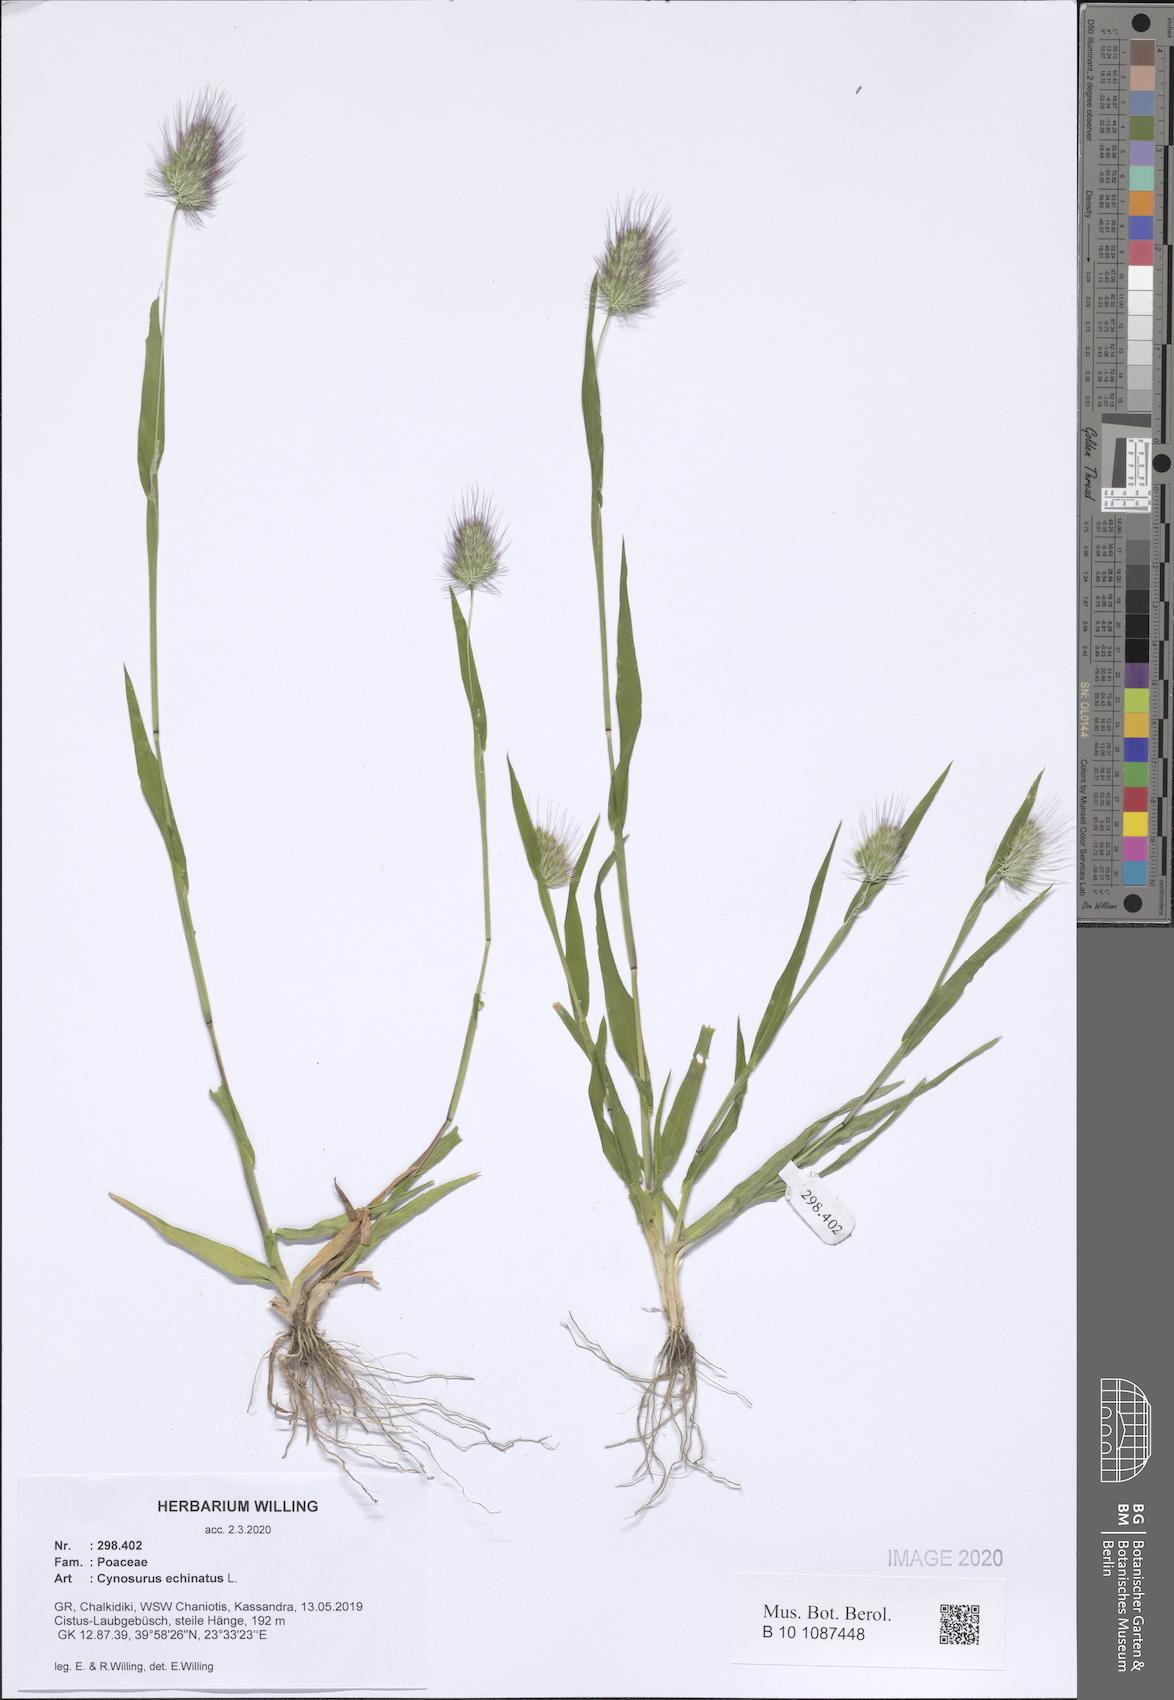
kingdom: Plantae
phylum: Tracheophyta
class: Liliopsida
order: Poales
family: Poaceae
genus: Cynosurus
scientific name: Cynosurus echinatus
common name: Rough dog's-tail
